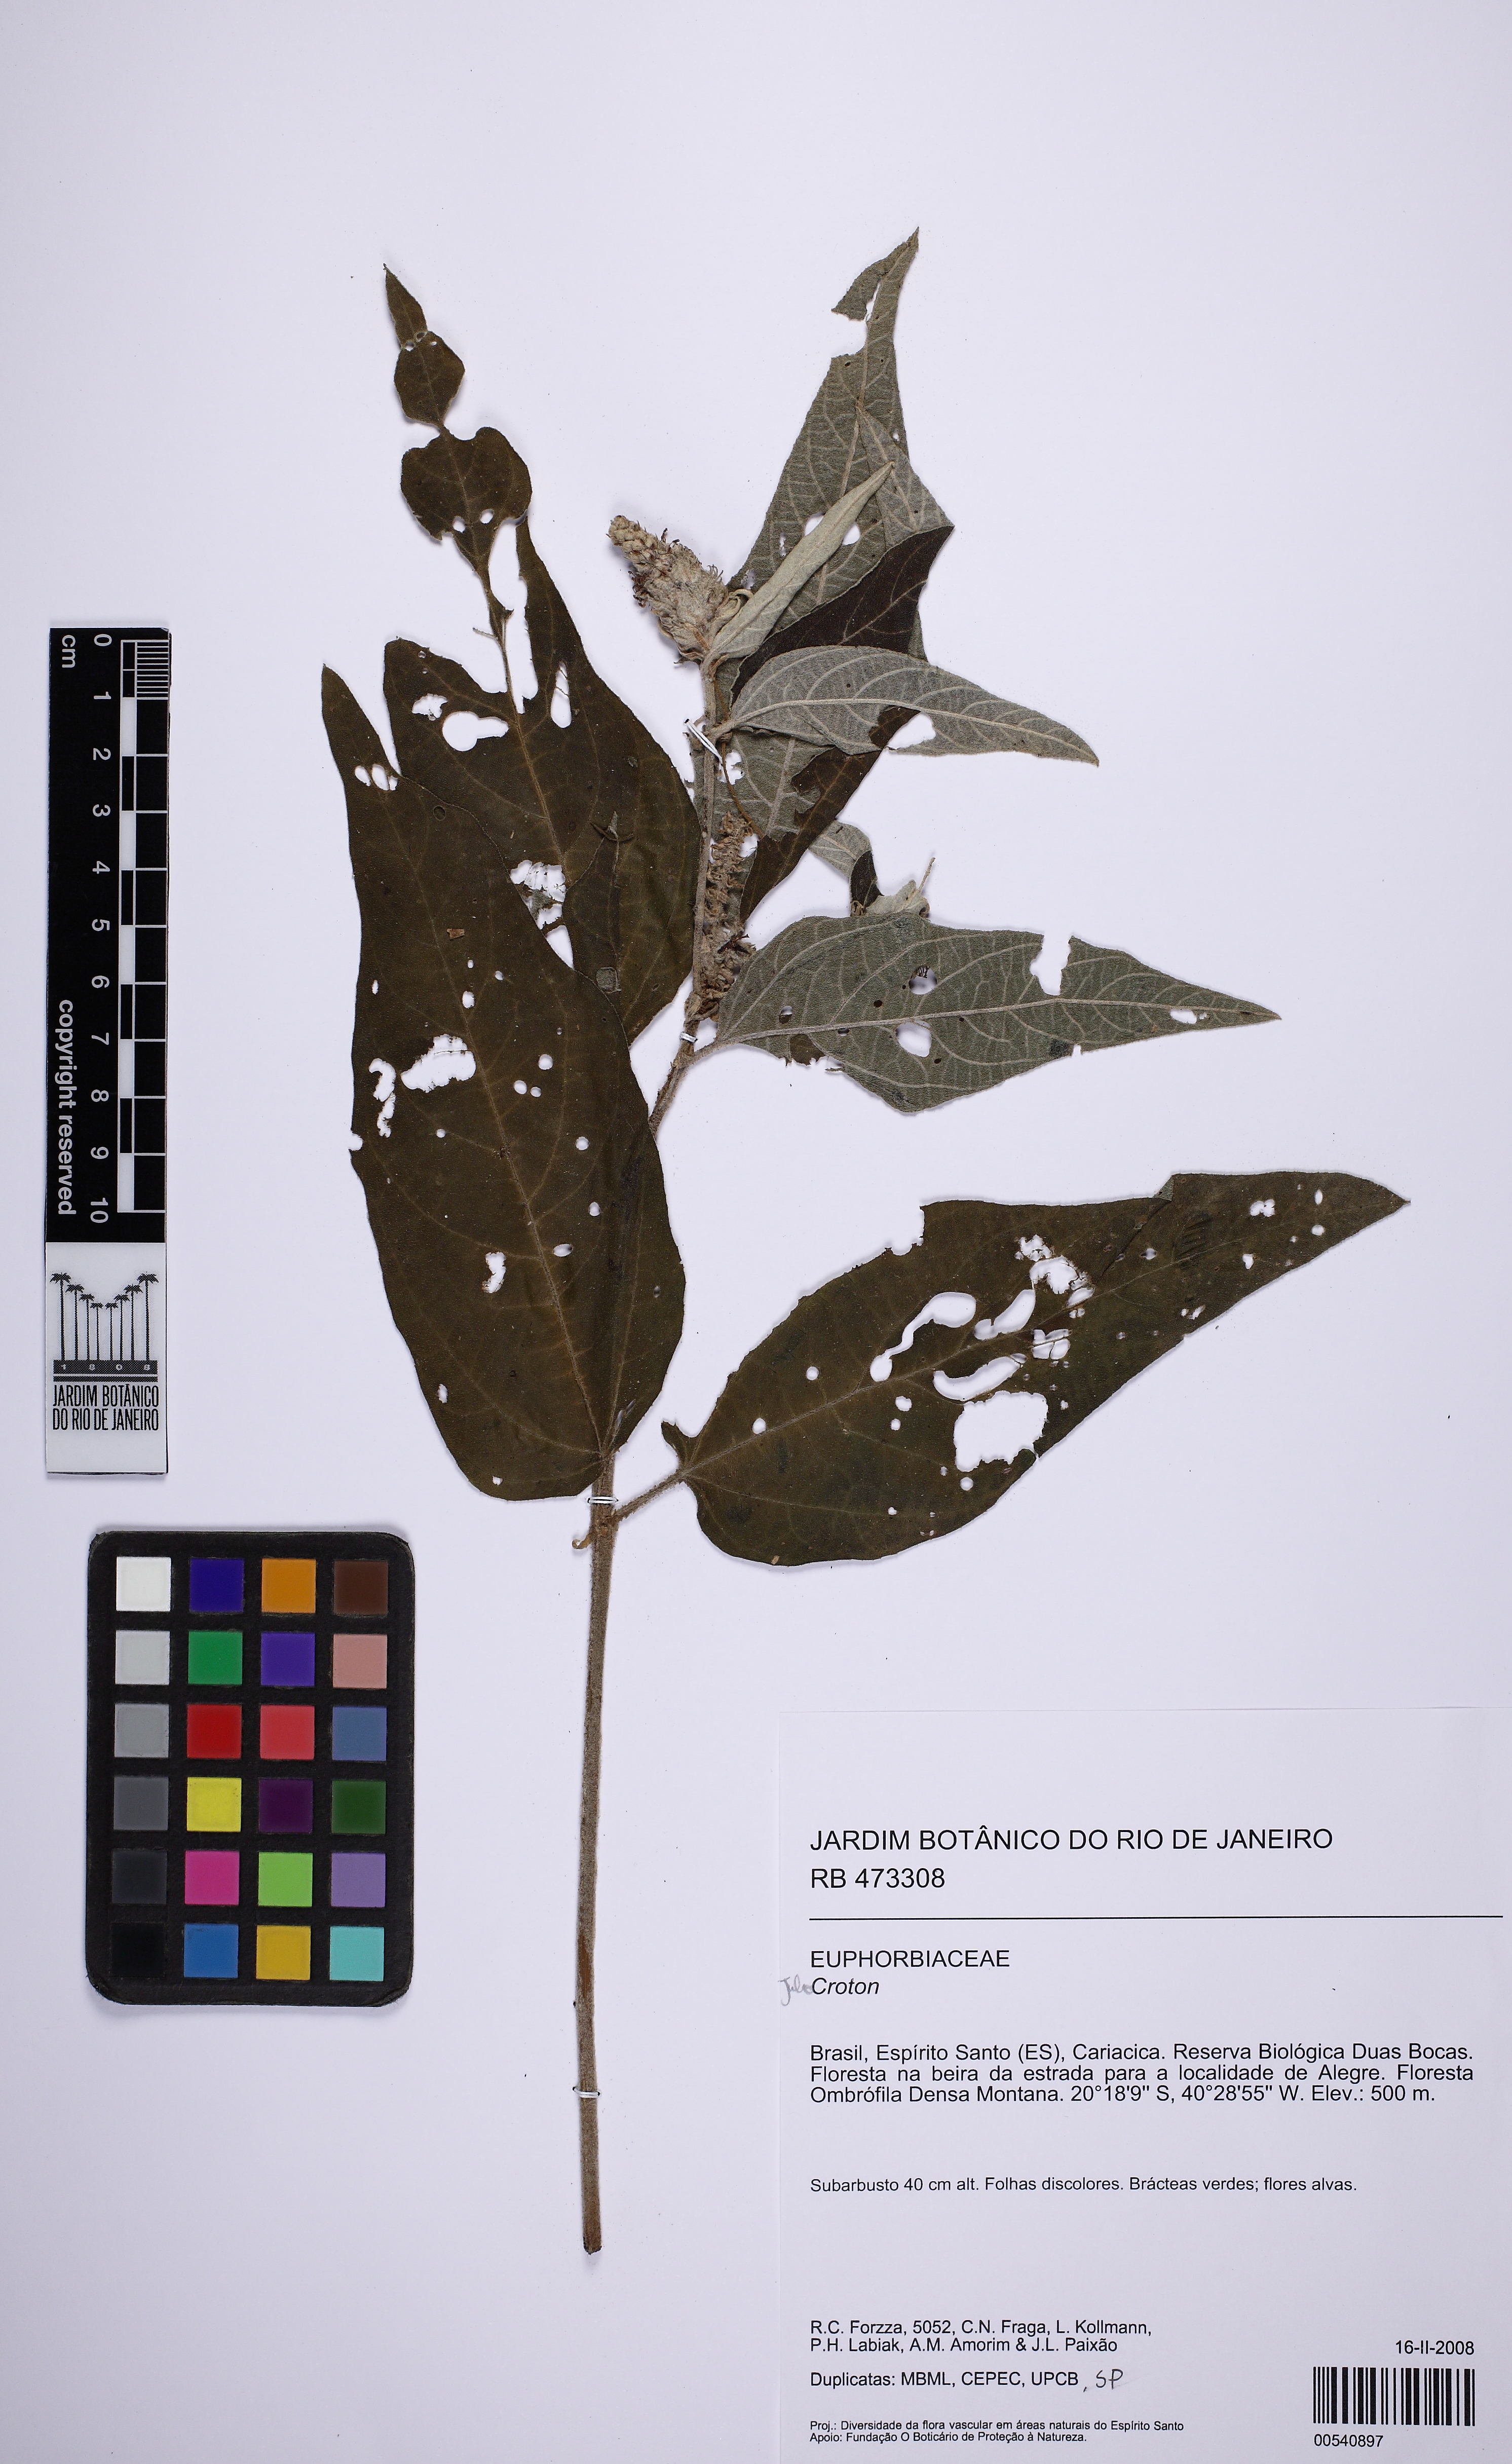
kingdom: Plantae
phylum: Tracheophyta
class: Magnoliopsida
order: Malpighiales
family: Euphorbiaceae
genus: Croton
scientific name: Croton
